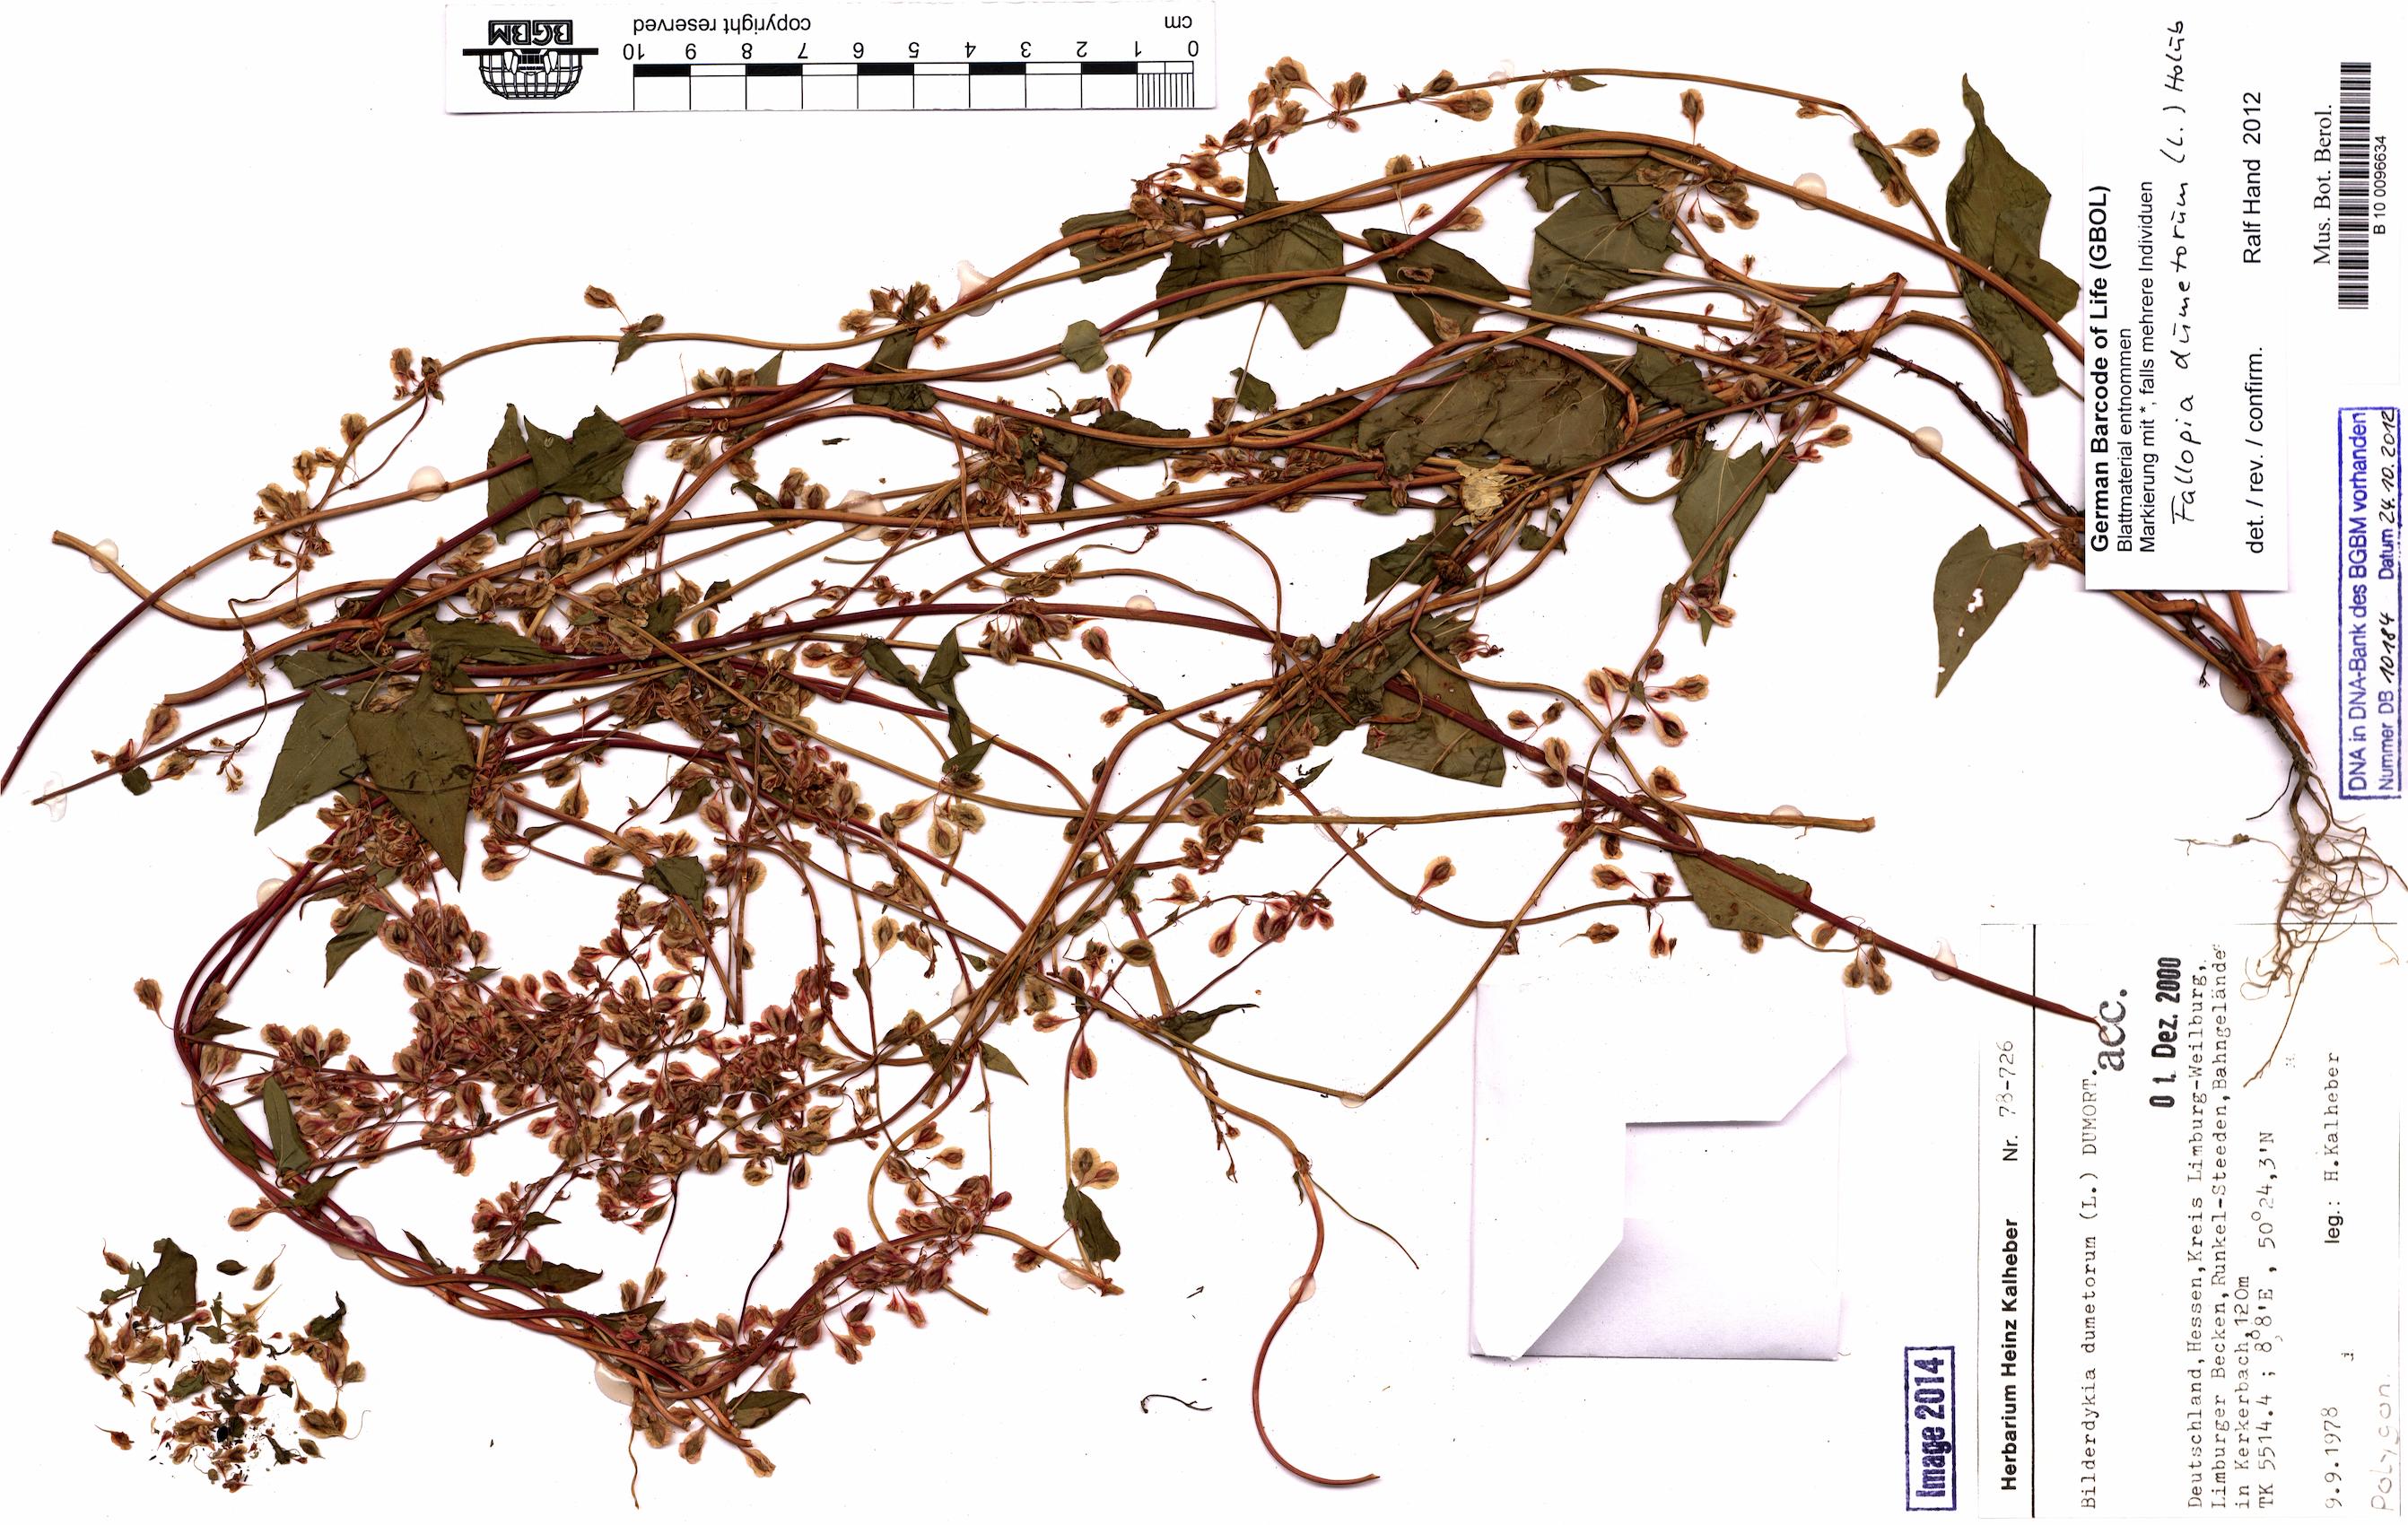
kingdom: Plantae
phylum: Tracheophyta
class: Magnoliopsida
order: Caryophyllales
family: Polygonaceae
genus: Fallopia
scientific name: Fallopia dumetorum
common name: Copse-bindweed
